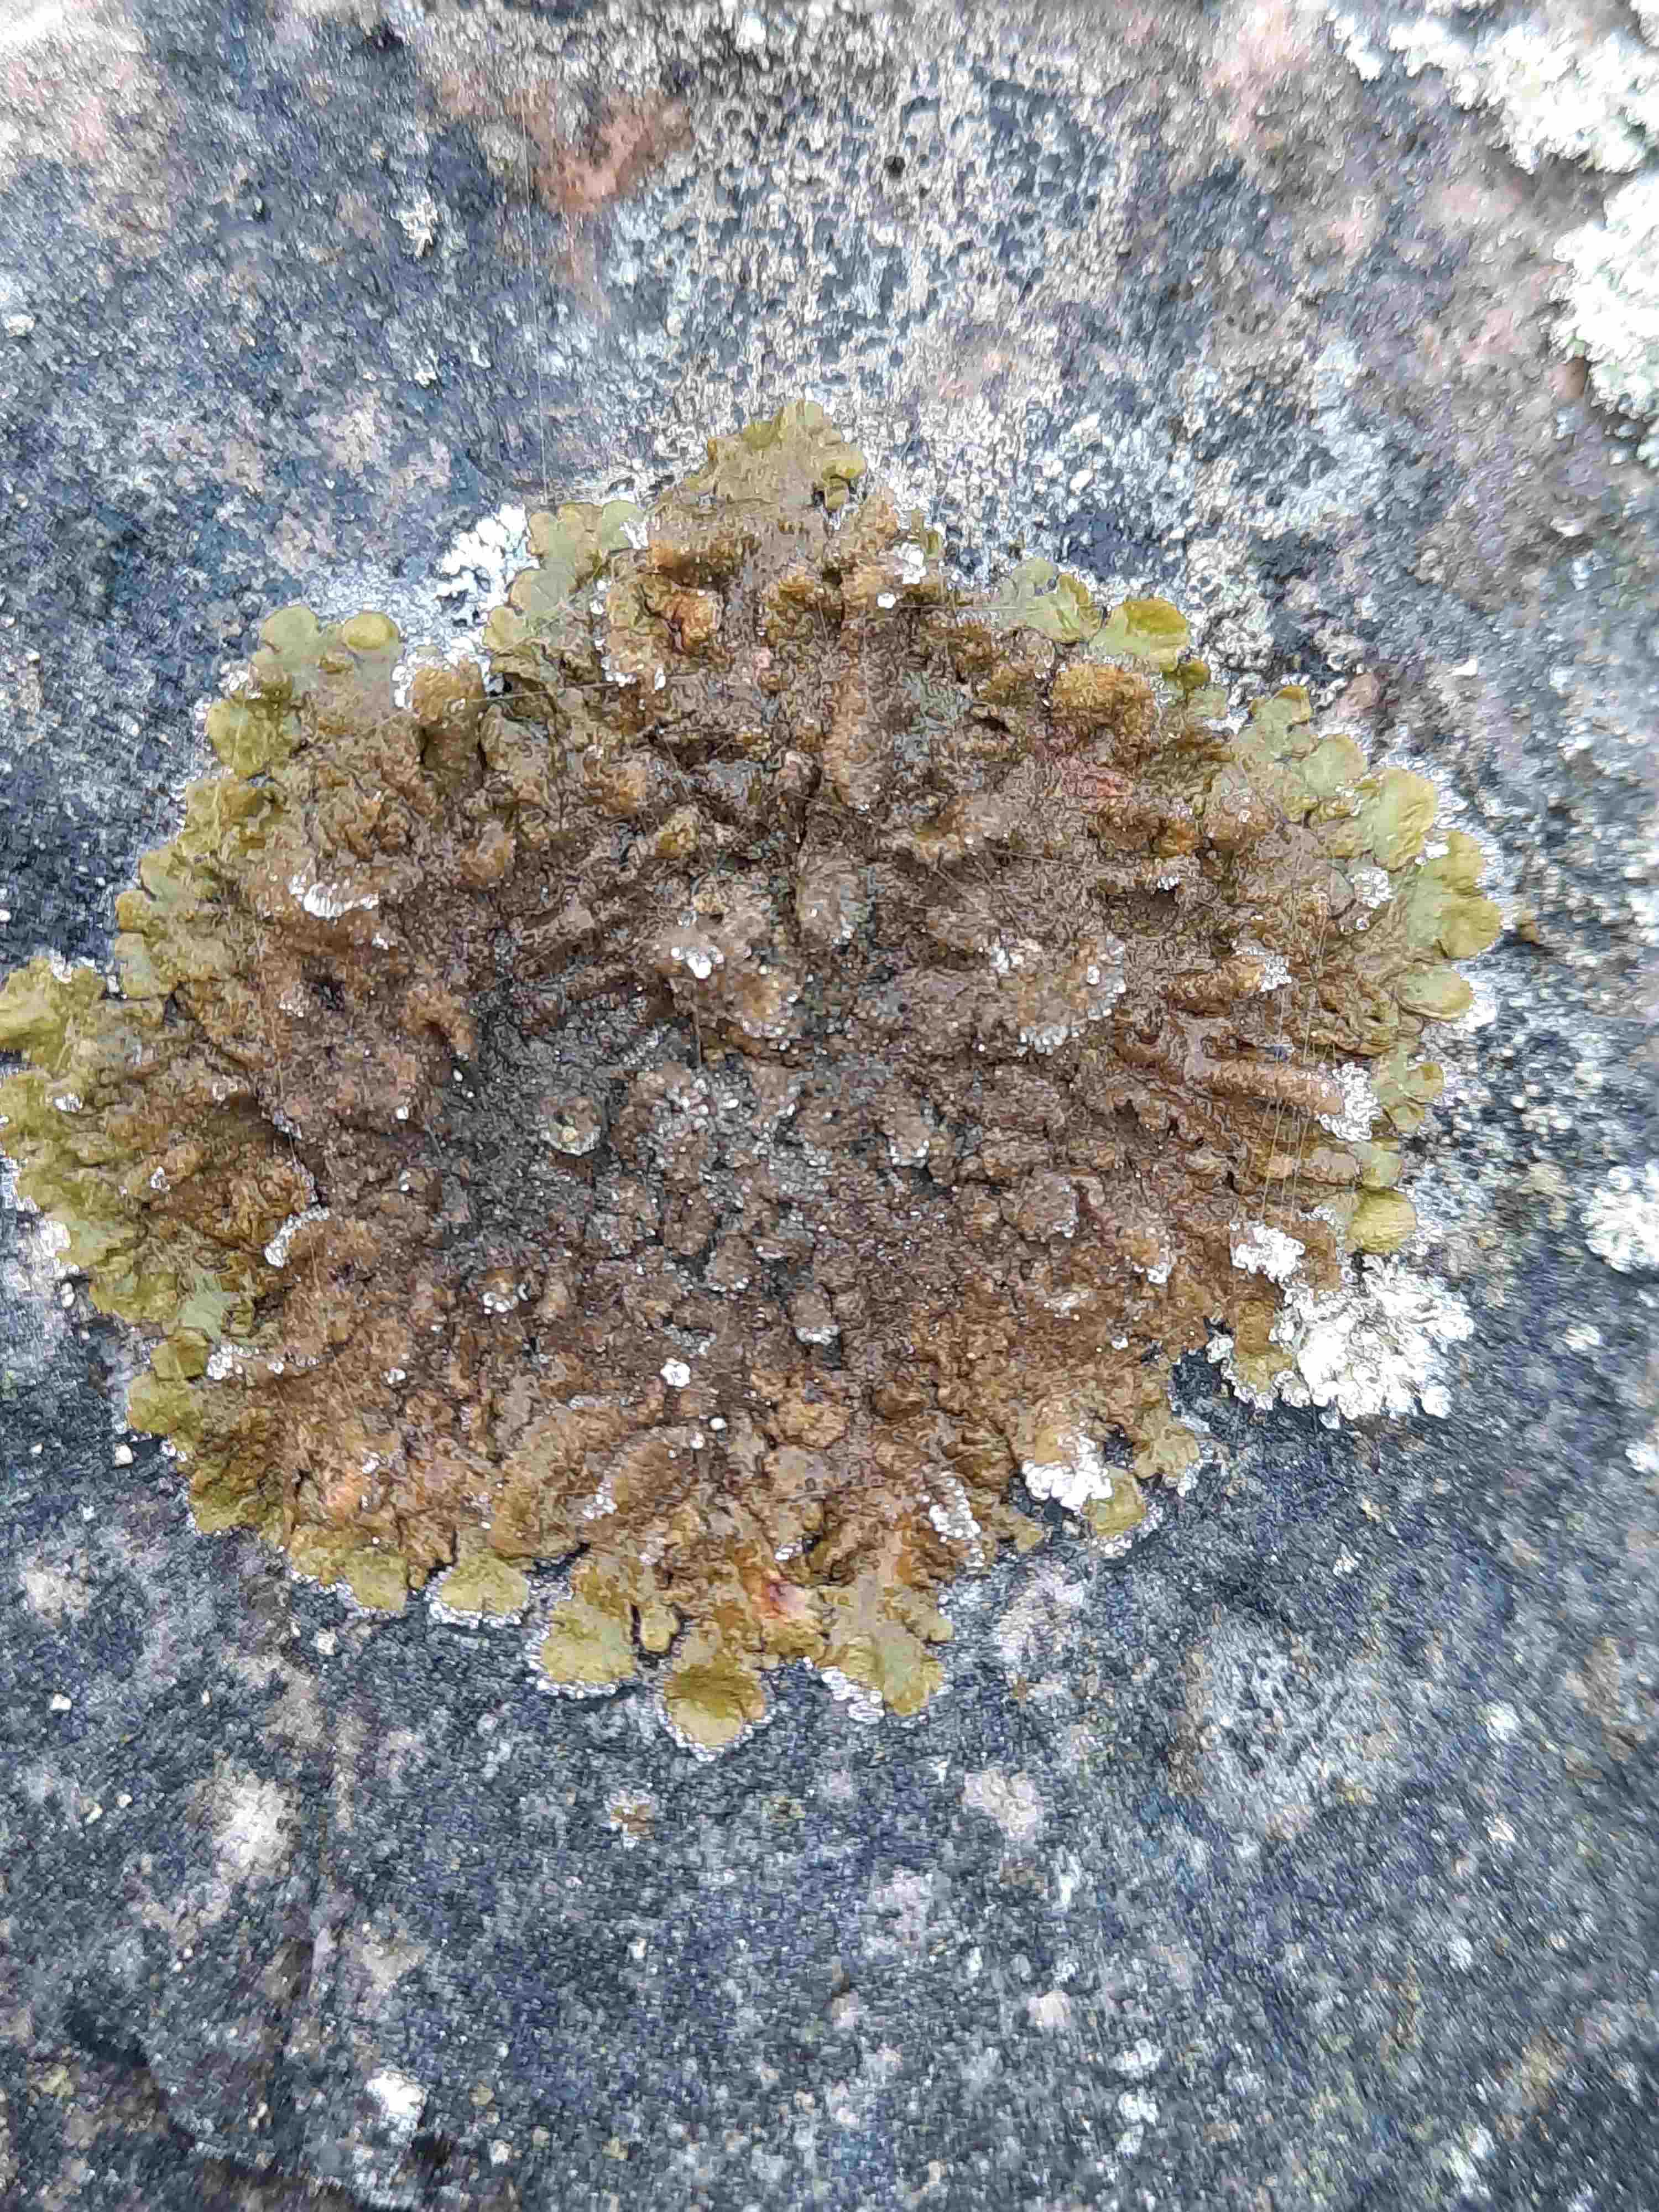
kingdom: Fungi
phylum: Ascomycota
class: Lecanoromycetes
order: Lecanorales
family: Parmeliaceae
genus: Melanelixia
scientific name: Melanelixia
